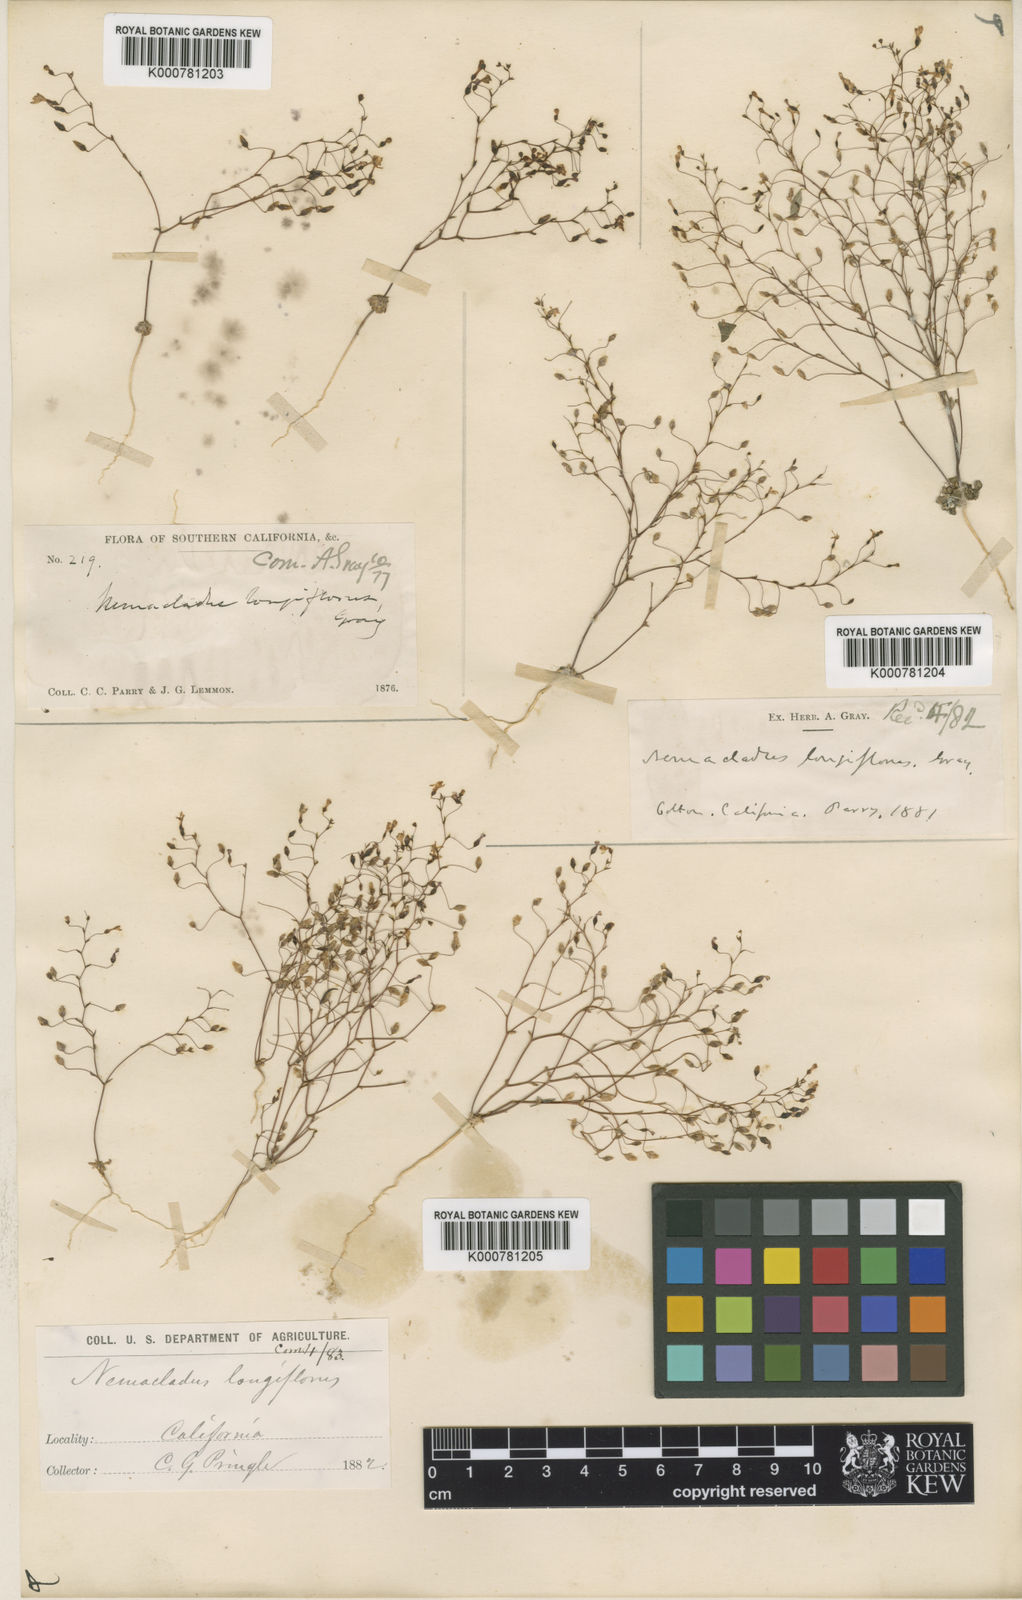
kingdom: Plantae
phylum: Tracheophyta
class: Magnoliopsida
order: Asterales
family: Campanulaceae
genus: Nemacladus
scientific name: Nemacladus longiflorus
